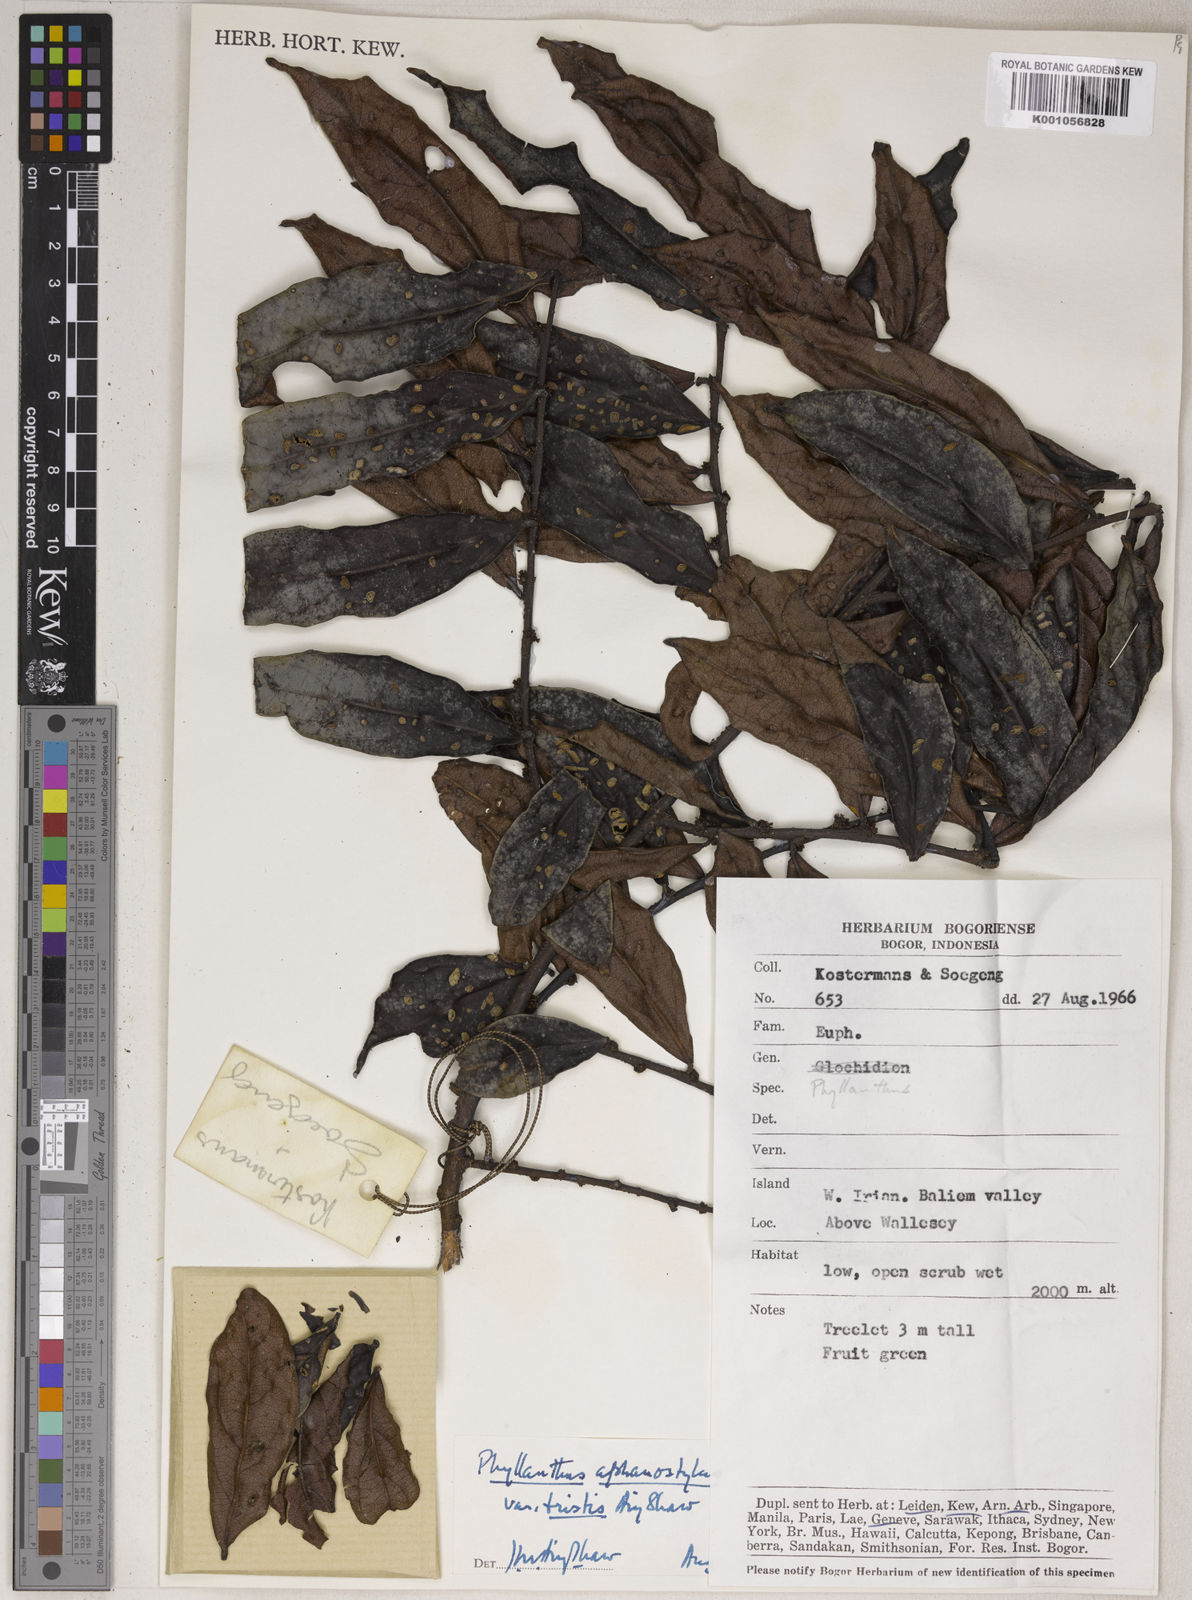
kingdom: Plantae
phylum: Tracheophyta
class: Magnoliopsida
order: Malpighiales
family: Phyllanthaceae
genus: Phyllanthus
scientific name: Phyllanthus aphanostylus
